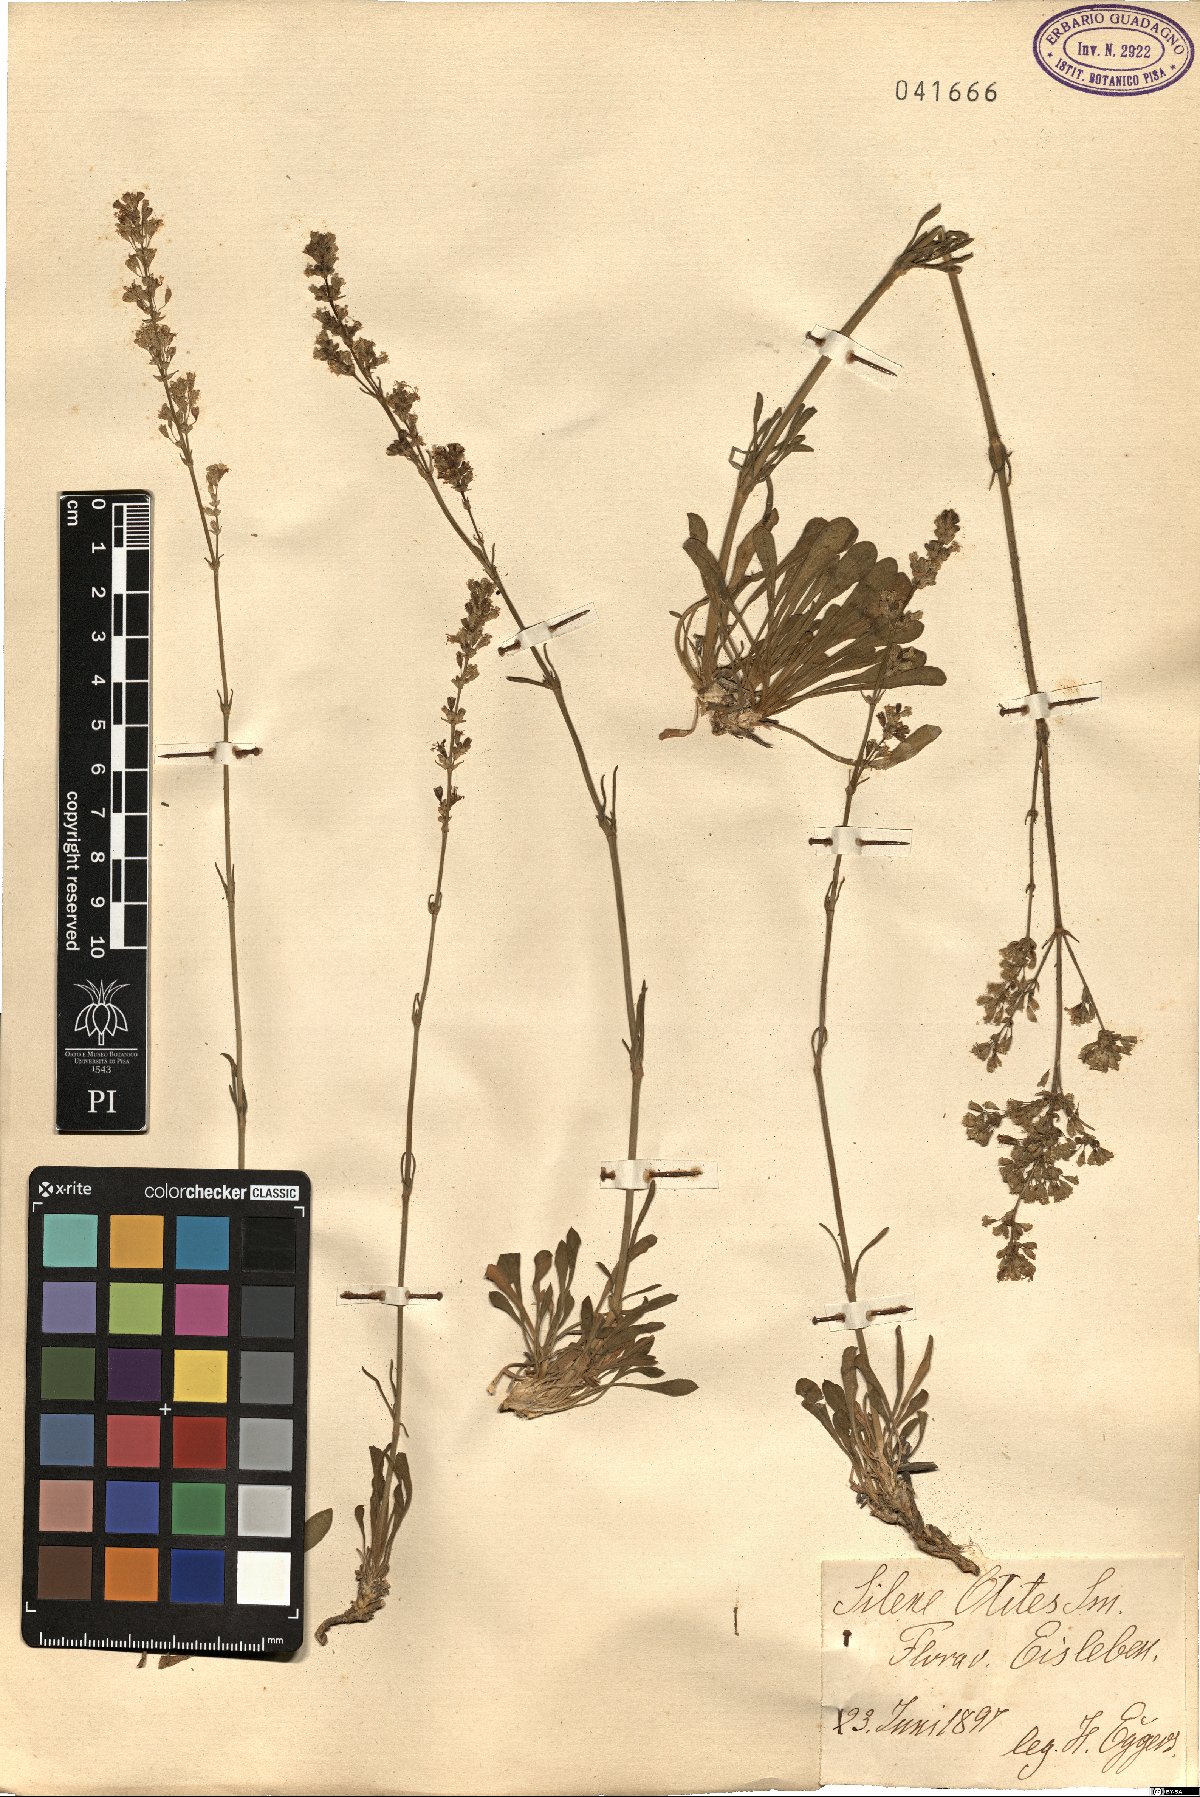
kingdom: Plantae
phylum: Tracheophyta
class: Magnoliopsida
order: Caryophyllales
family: Caryophyllaceae
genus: Silene
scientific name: Silene otites
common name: Spanish catchfly
